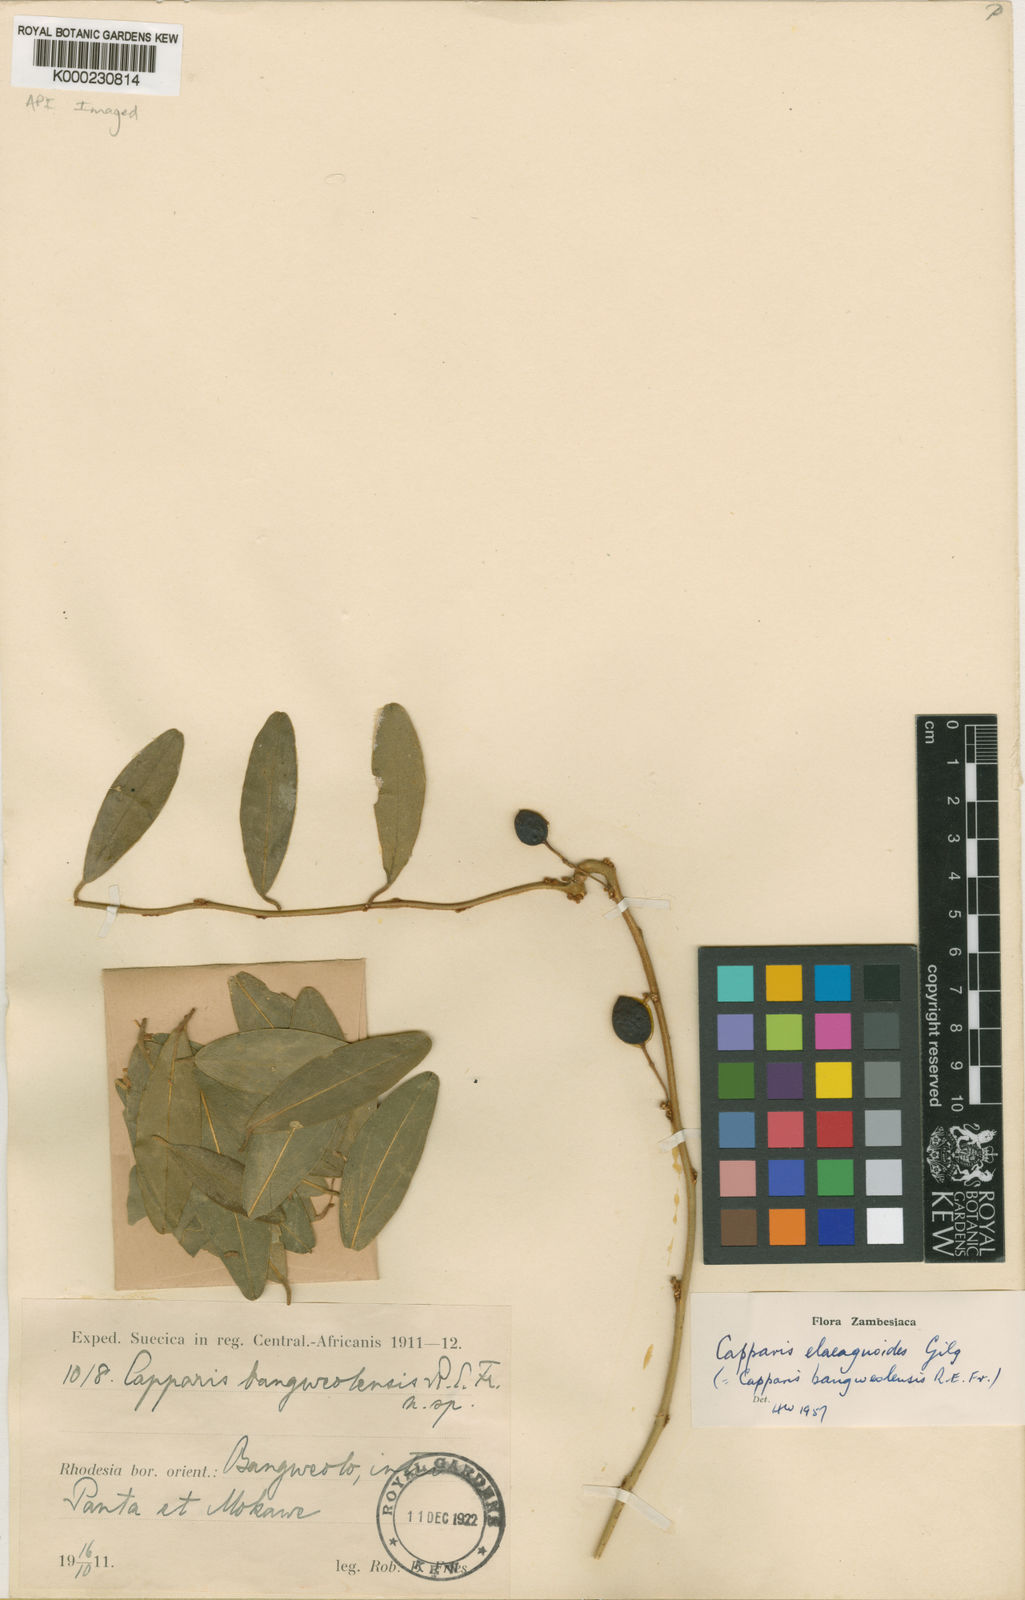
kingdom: Plantae
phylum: Tracheophyta
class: Magnoliopsida
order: Brassicales
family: Capparaceae
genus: Capparis
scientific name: Capparis
